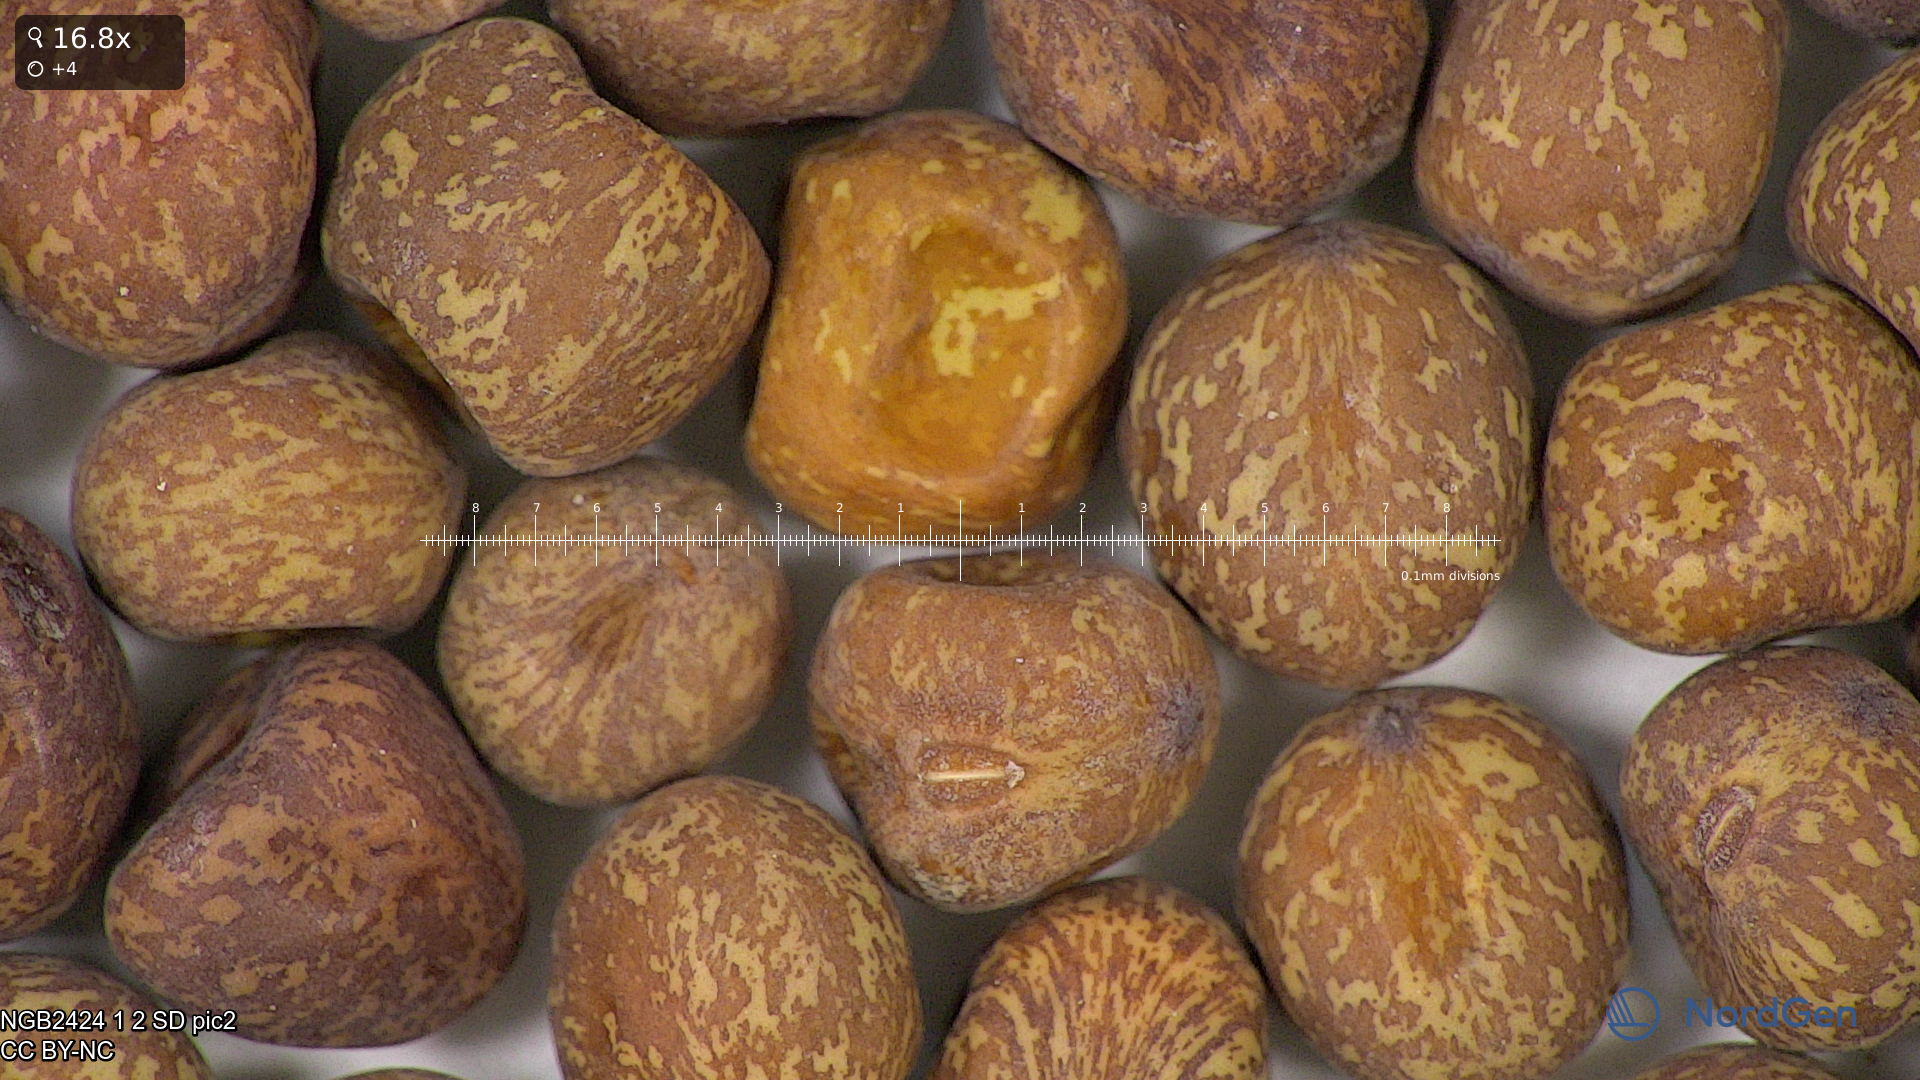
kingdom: Plantae
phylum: Tracheophyta
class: Magnoliopsida
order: Fabales
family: Fabaceae
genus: Lathyrus
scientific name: Lathyrus oleraceus
